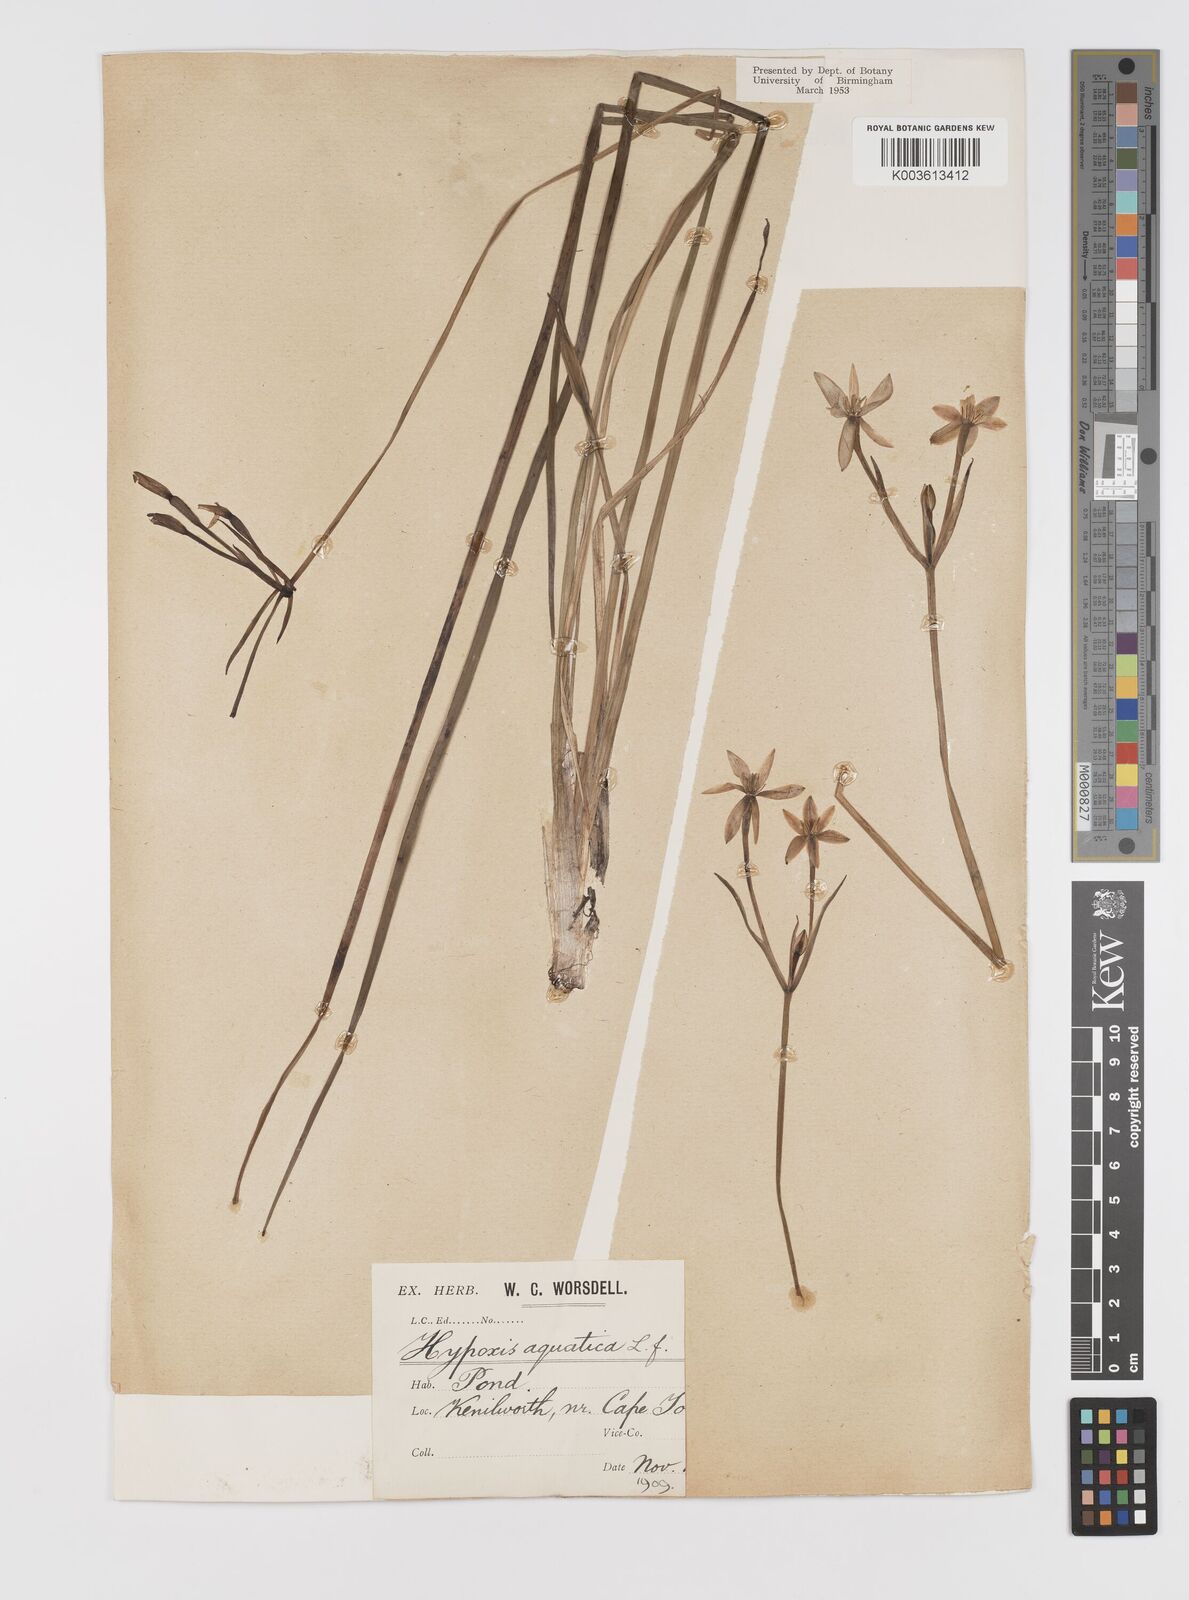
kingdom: Plantae
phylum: Tracheophyta
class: Liliopsida
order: Asparagales
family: Hypoxidaceae
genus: Pauridia
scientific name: Pauridia aquatica
